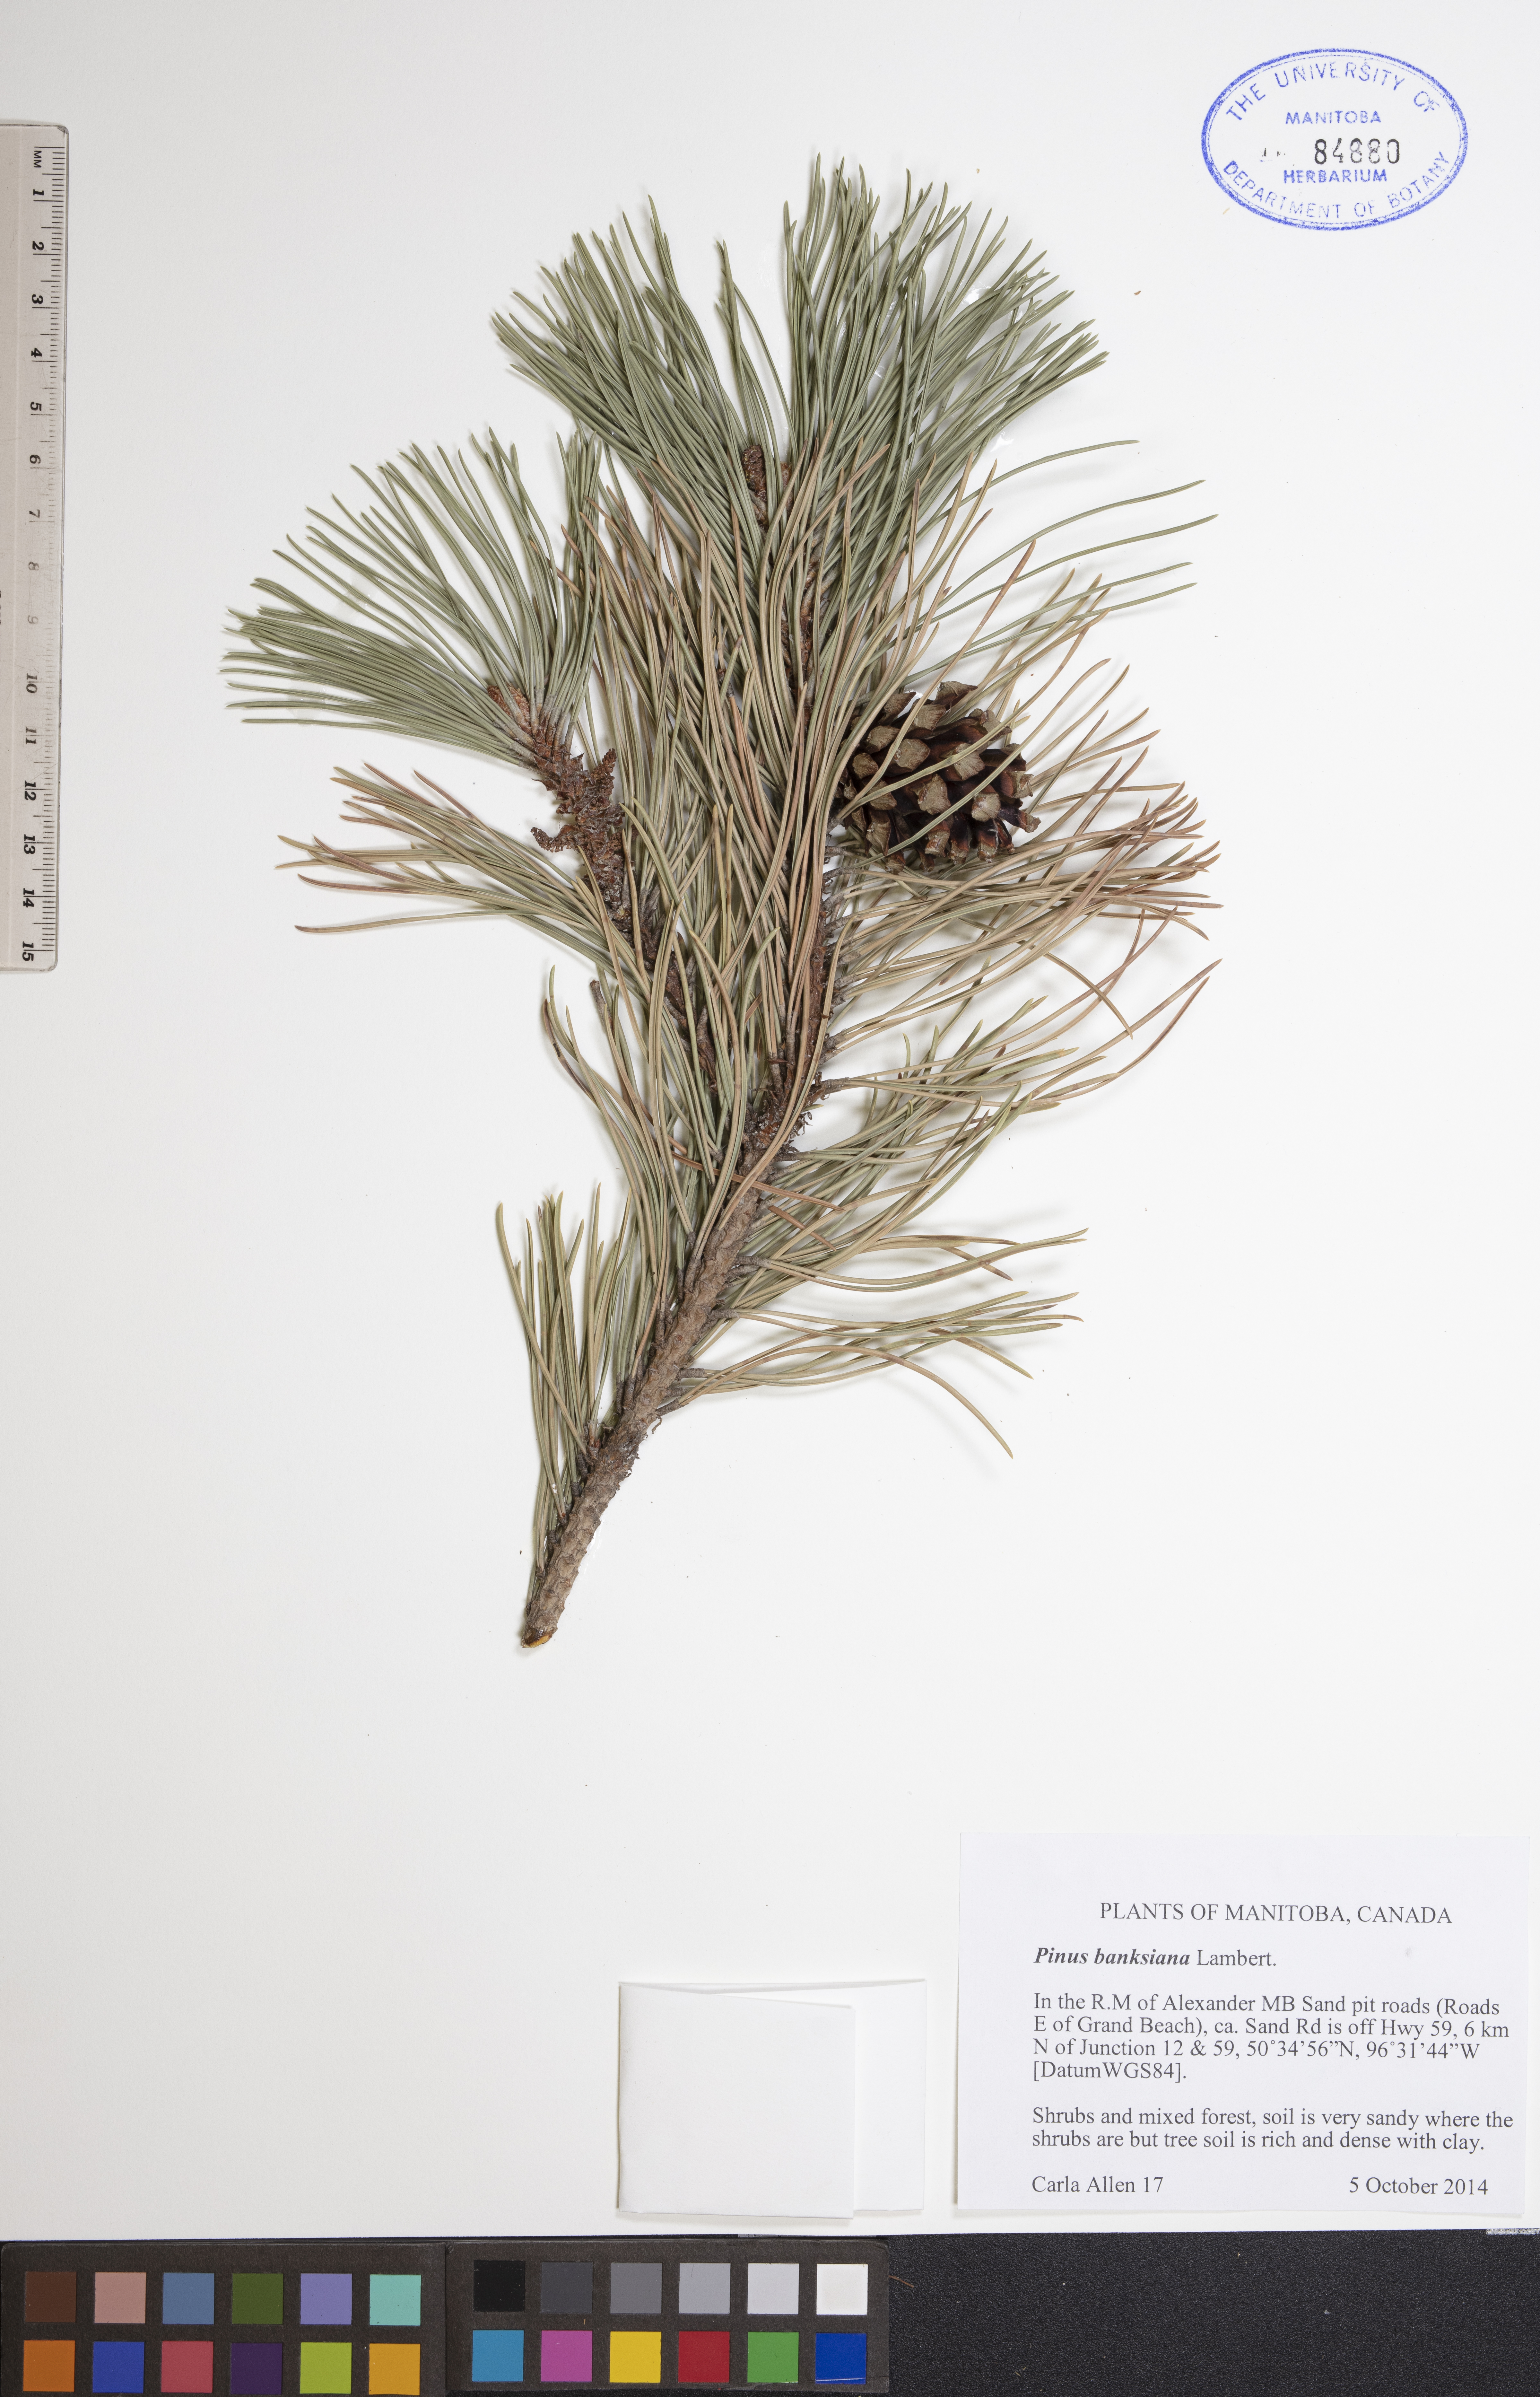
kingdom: Plantae
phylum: Tracheophyta
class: Pinopsida
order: Pinales
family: Pinaceae
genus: Pinus
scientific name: Pinus banksiana
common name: Jack pine
